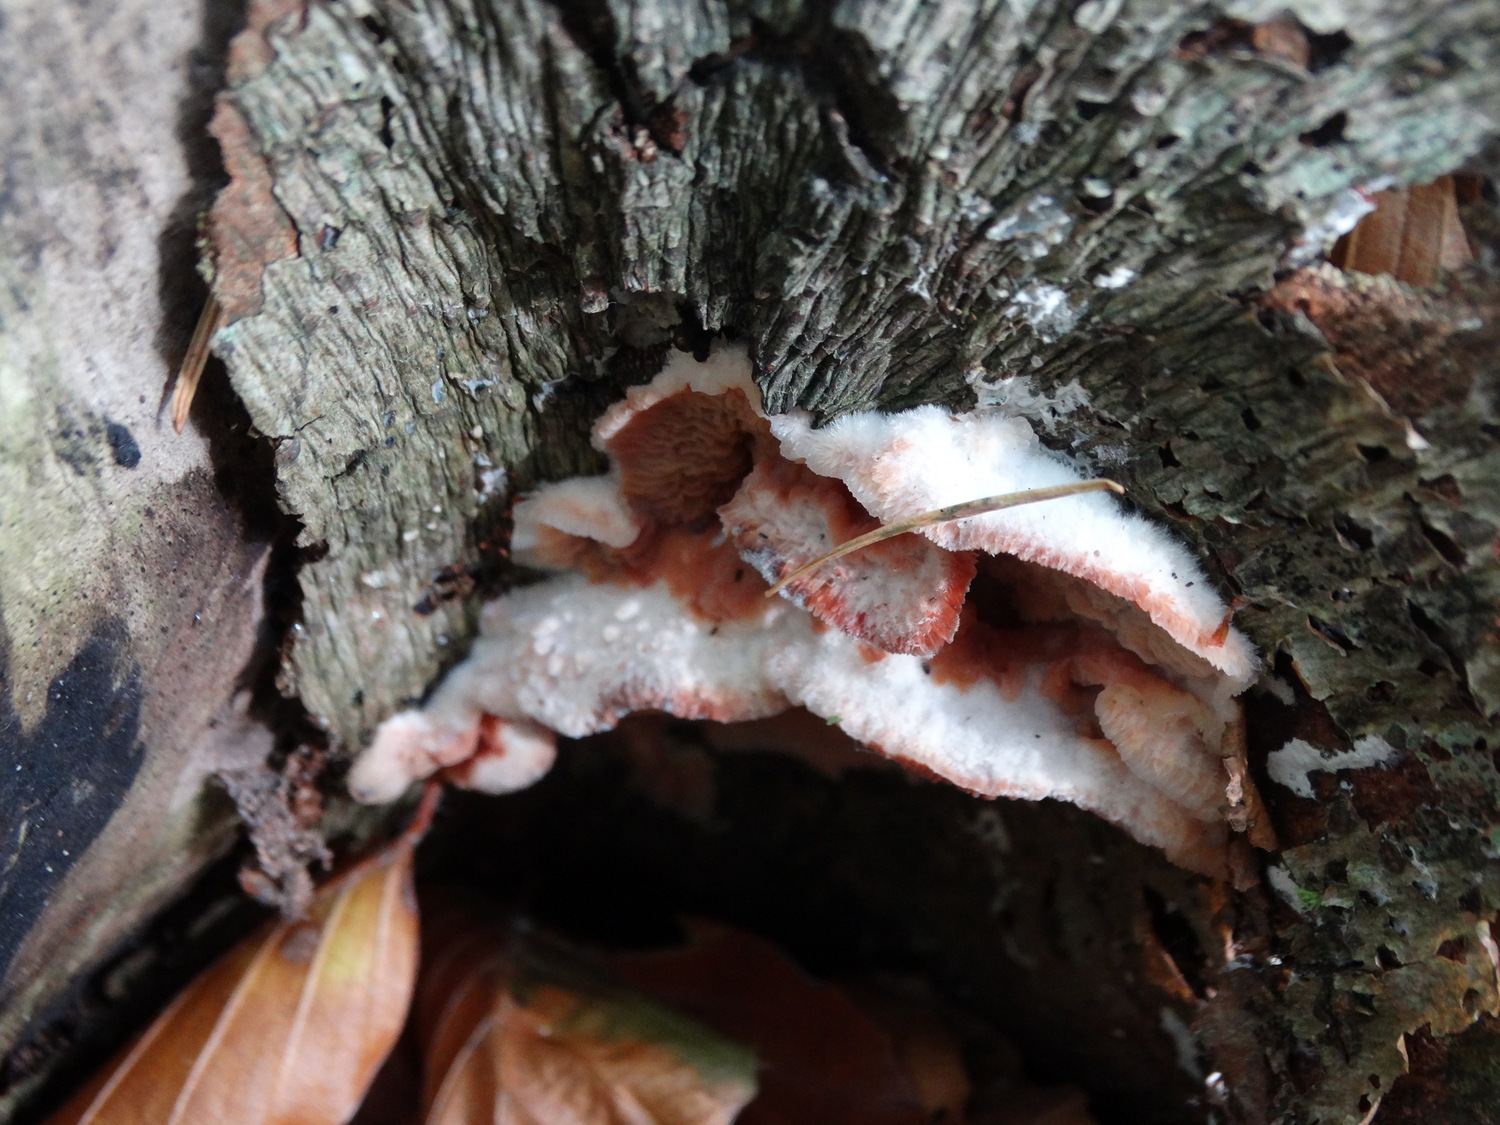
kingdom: Fungi
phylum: Basidiomycota
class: Agaricomycetes
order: Polyporales
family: Meruliaceae
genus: Phlebia
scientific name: Phlebia tremellosa
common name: bævrende åresvamp
